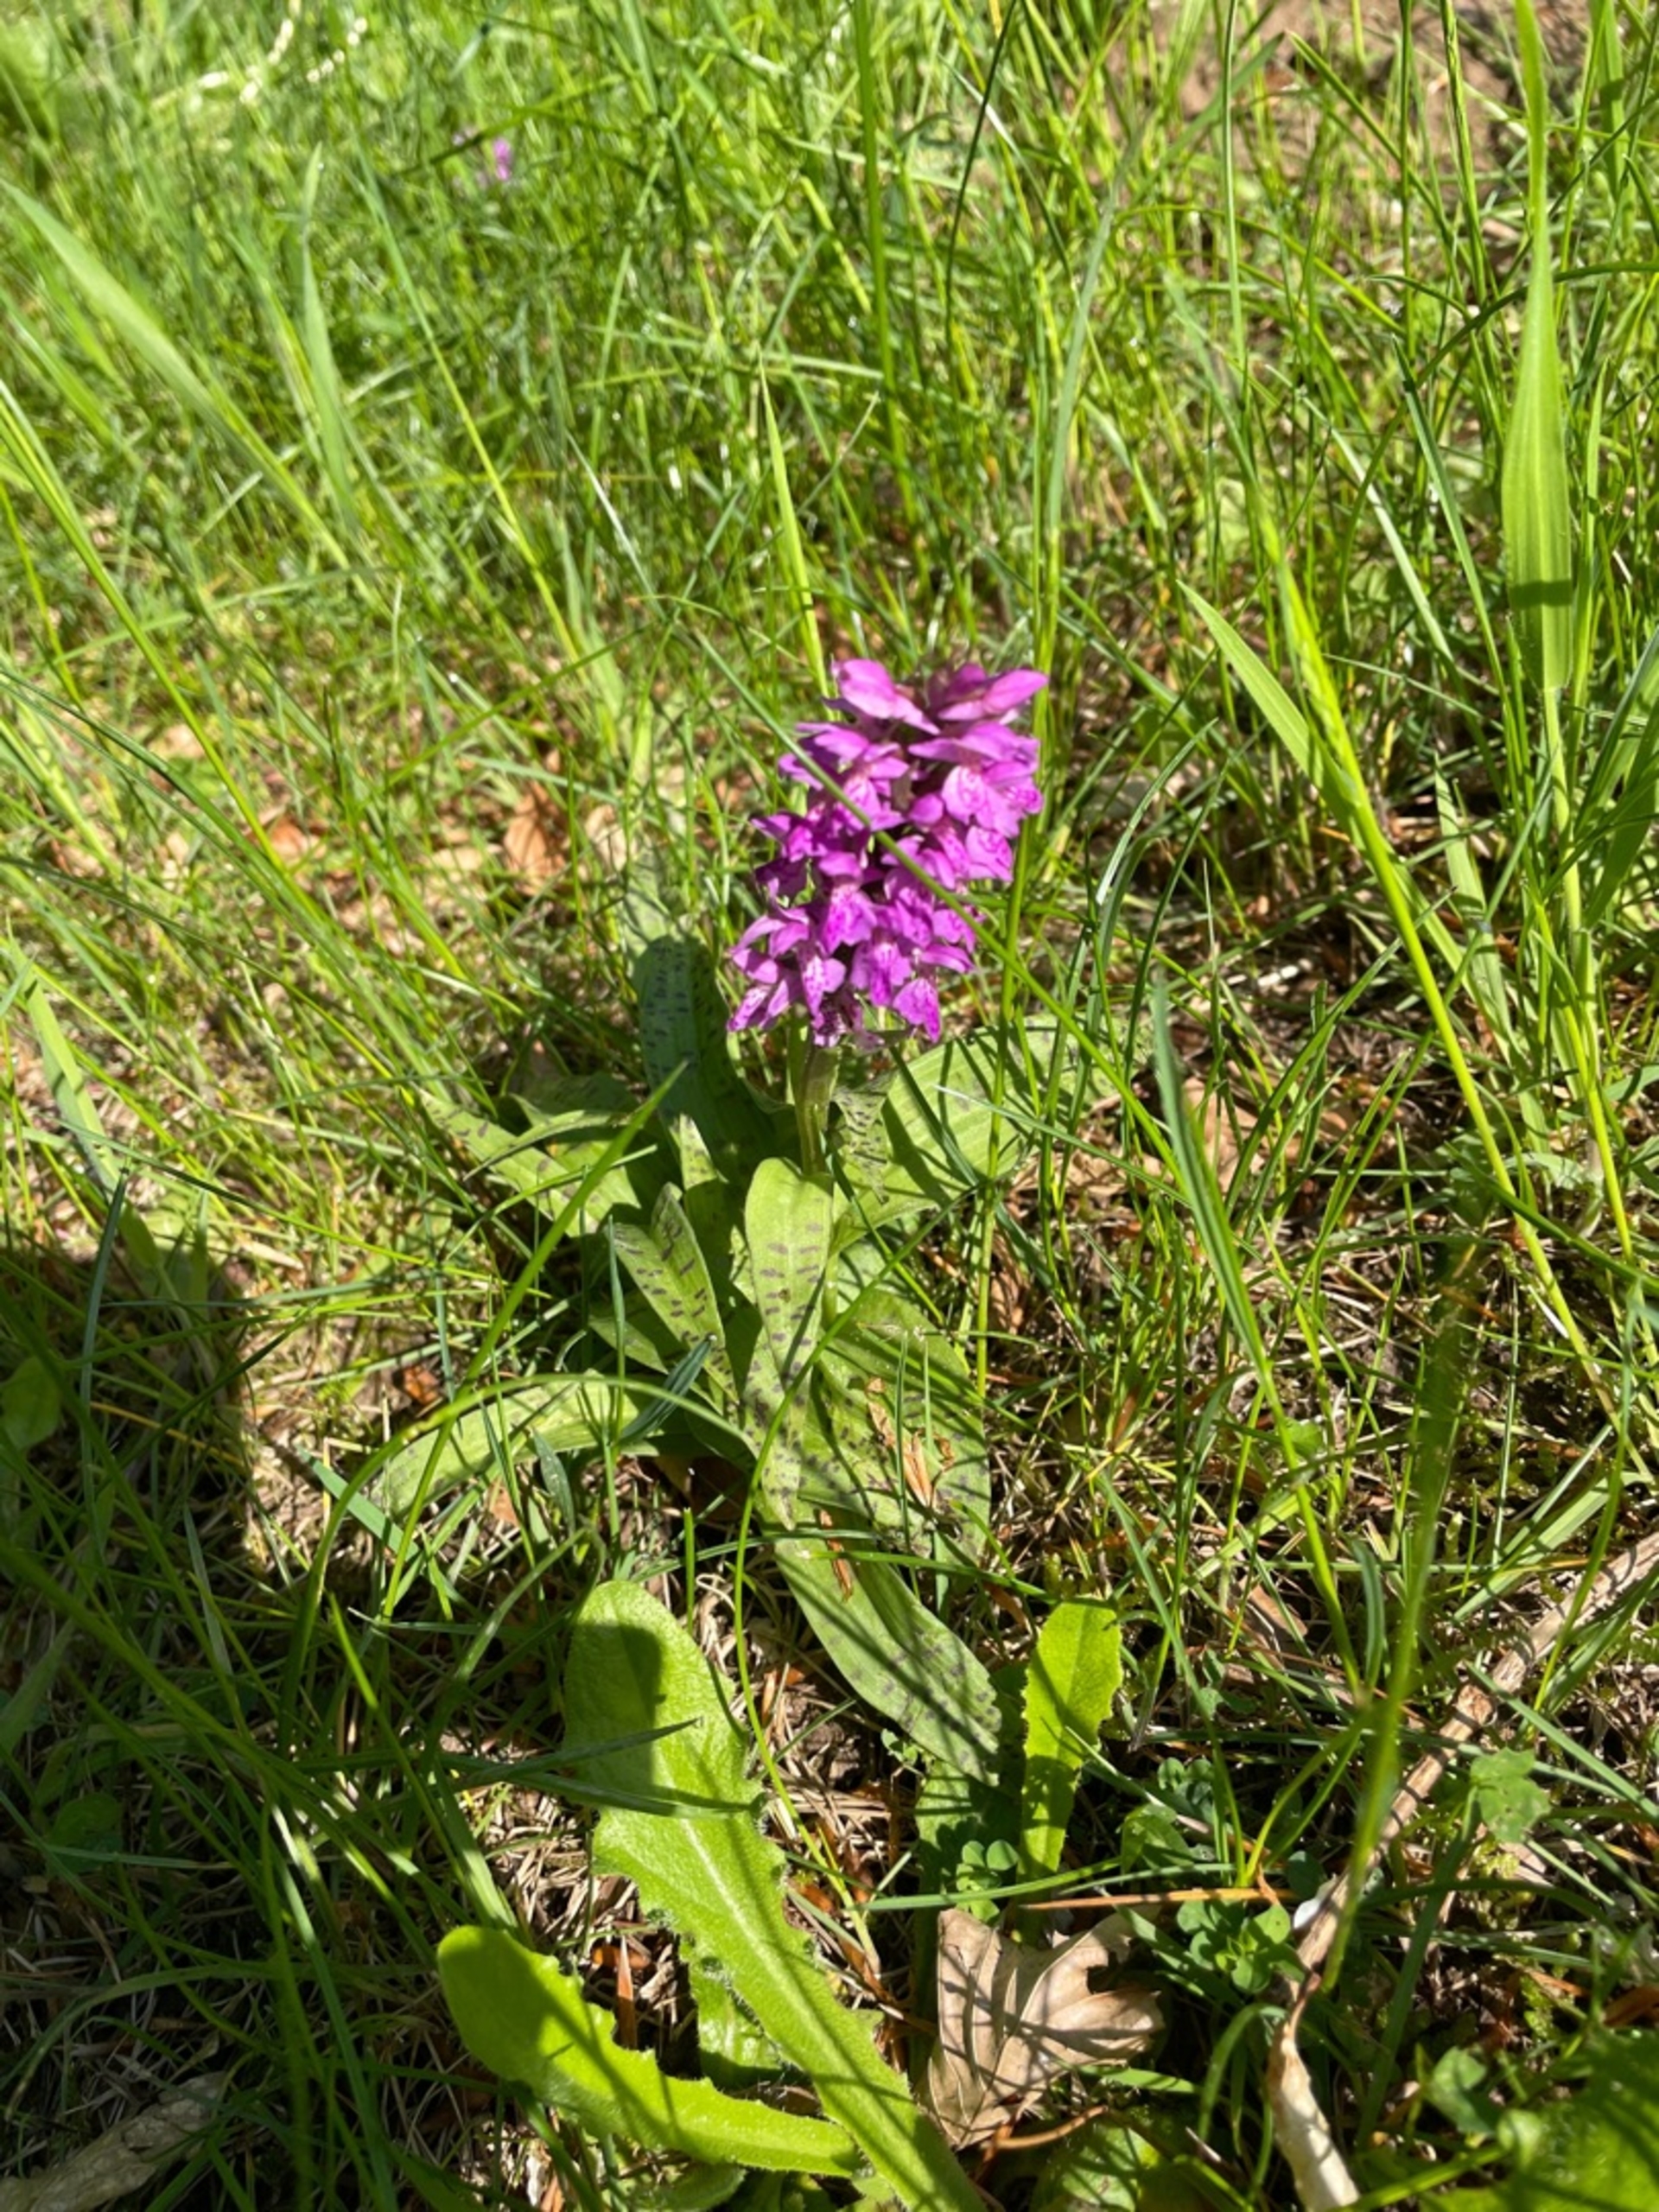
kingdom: Plantae
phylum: Tracheophyta
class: Liliopsida
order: Asparagales
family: Orchidaceae
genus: Dactylorhiza
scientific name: Dactylorhiza majalis
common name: Maj-gøgeurt
